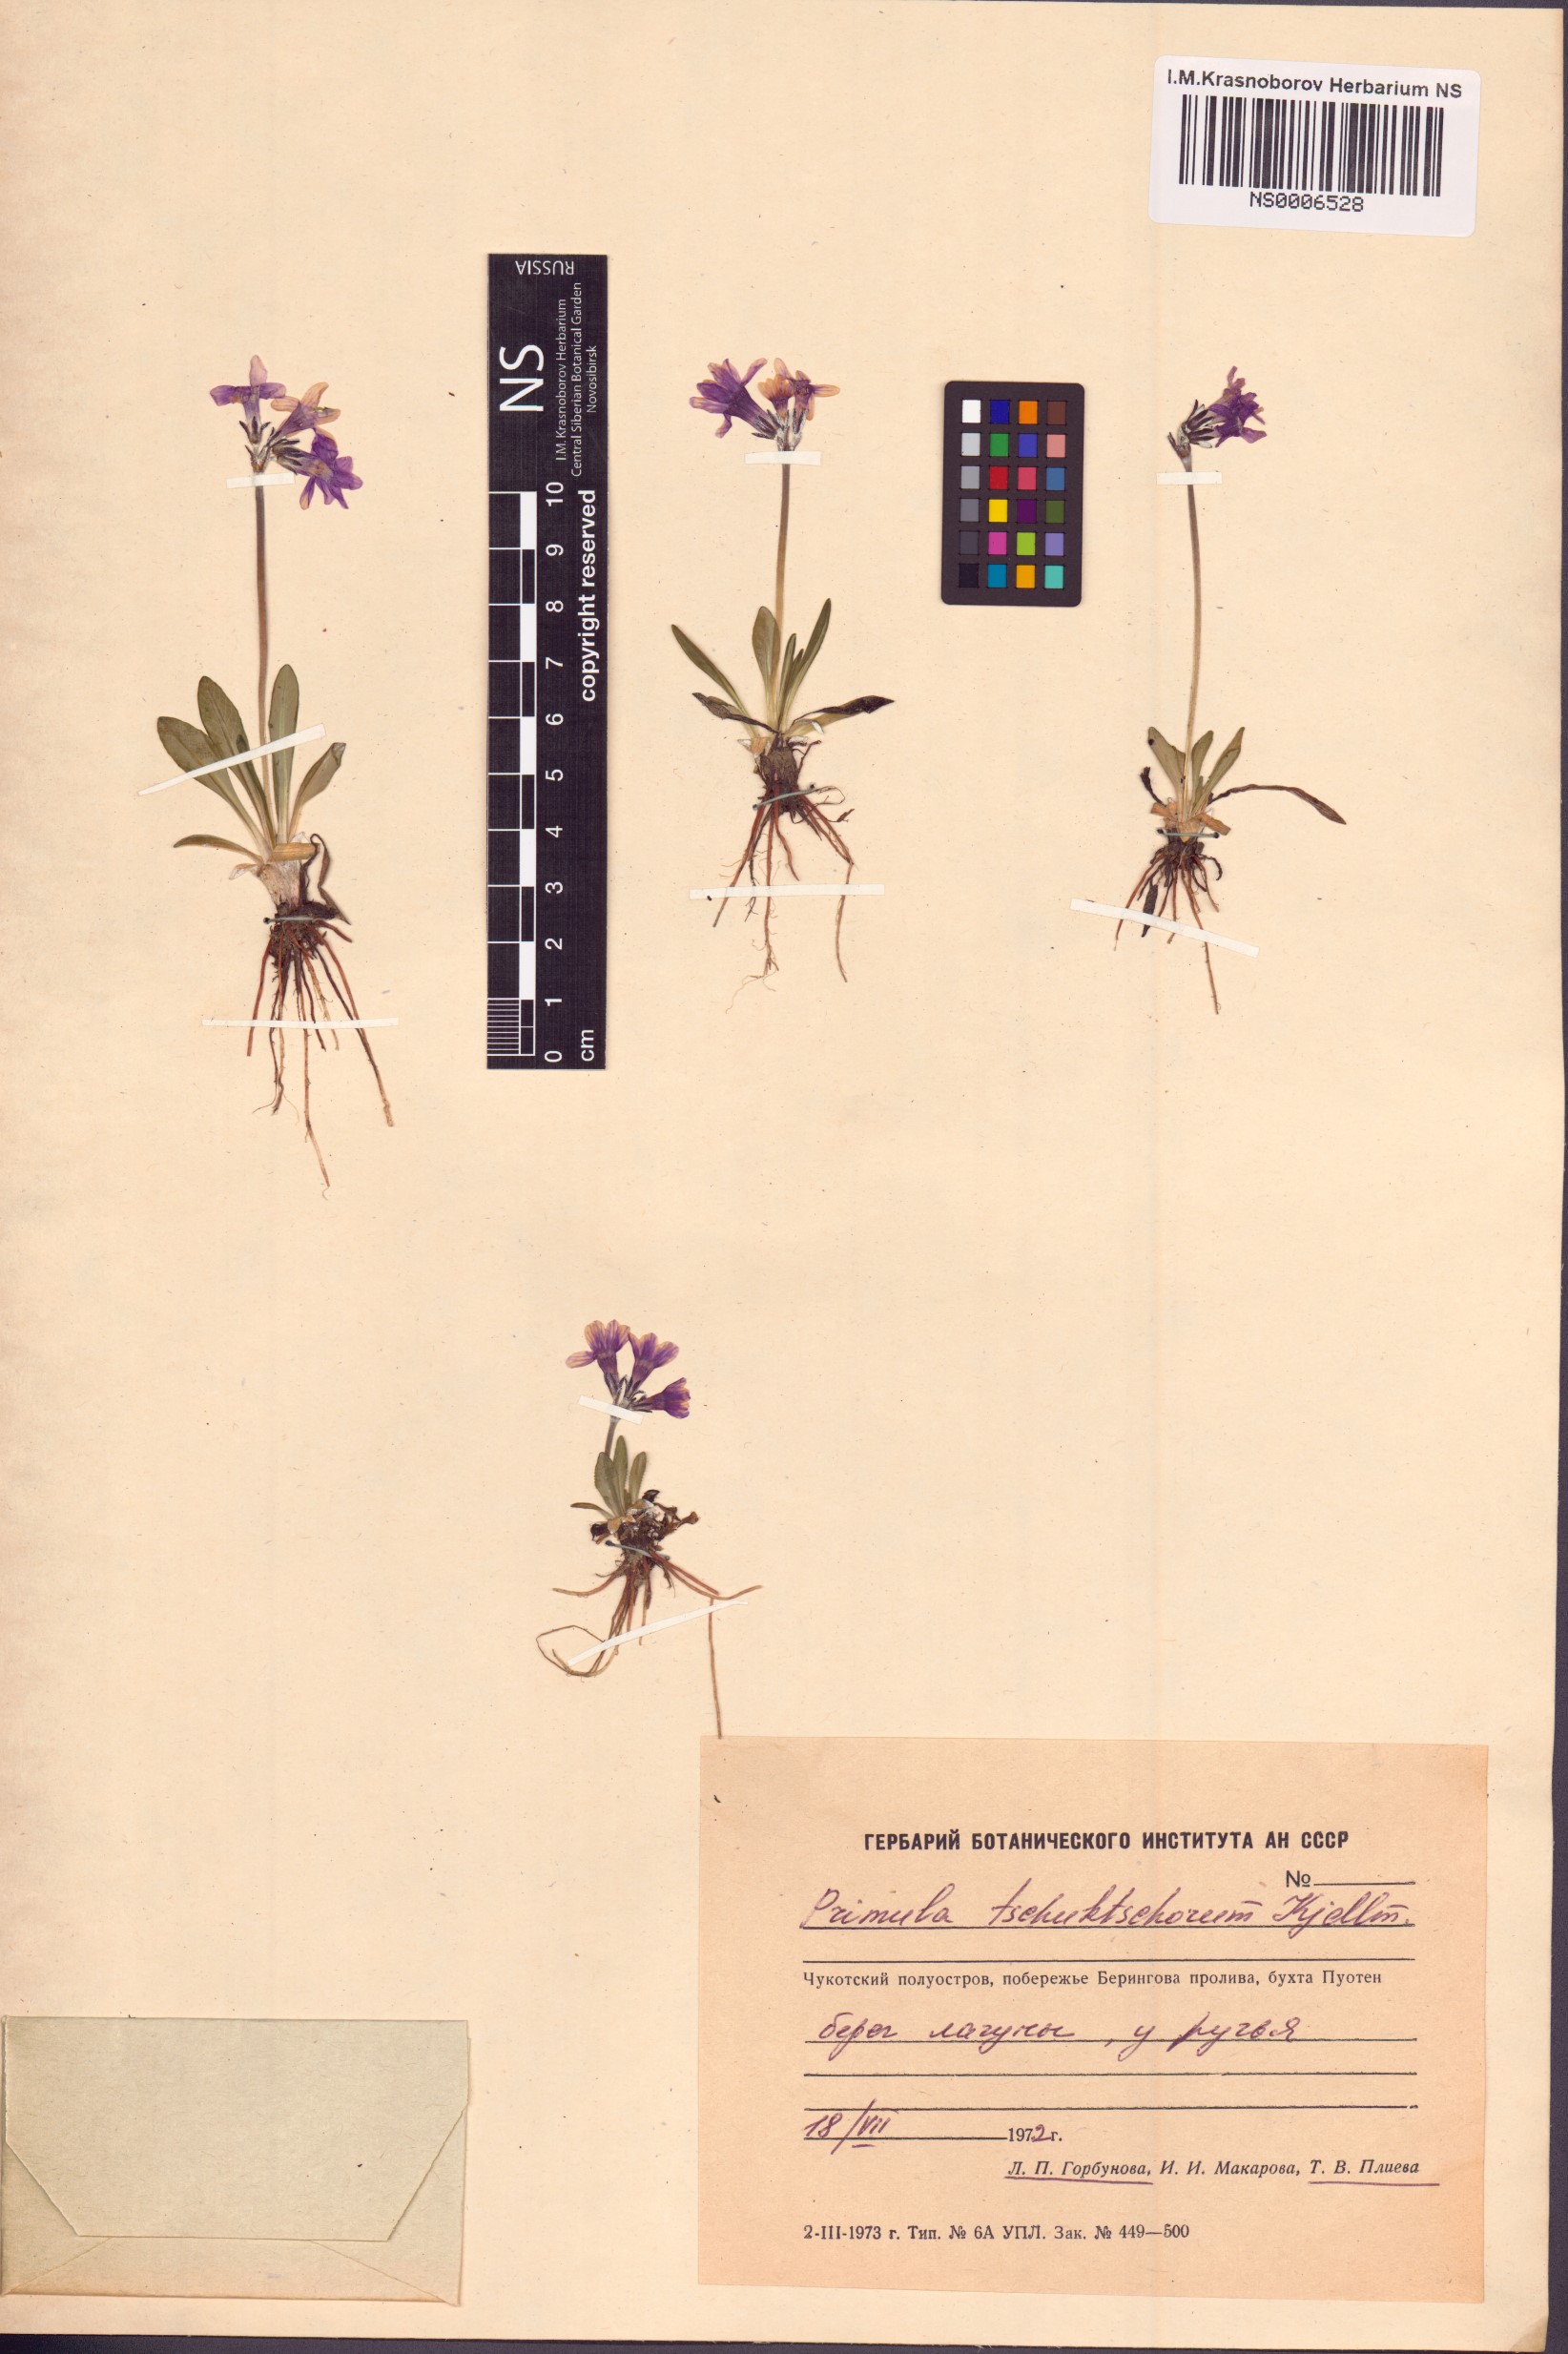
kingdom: Plantae
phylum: Tracheophyta
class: Magnoliopsida
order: Ericales
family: Primulaceae
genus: Primula
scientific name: Primula tschuktschorum
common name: Chukchi primrose
